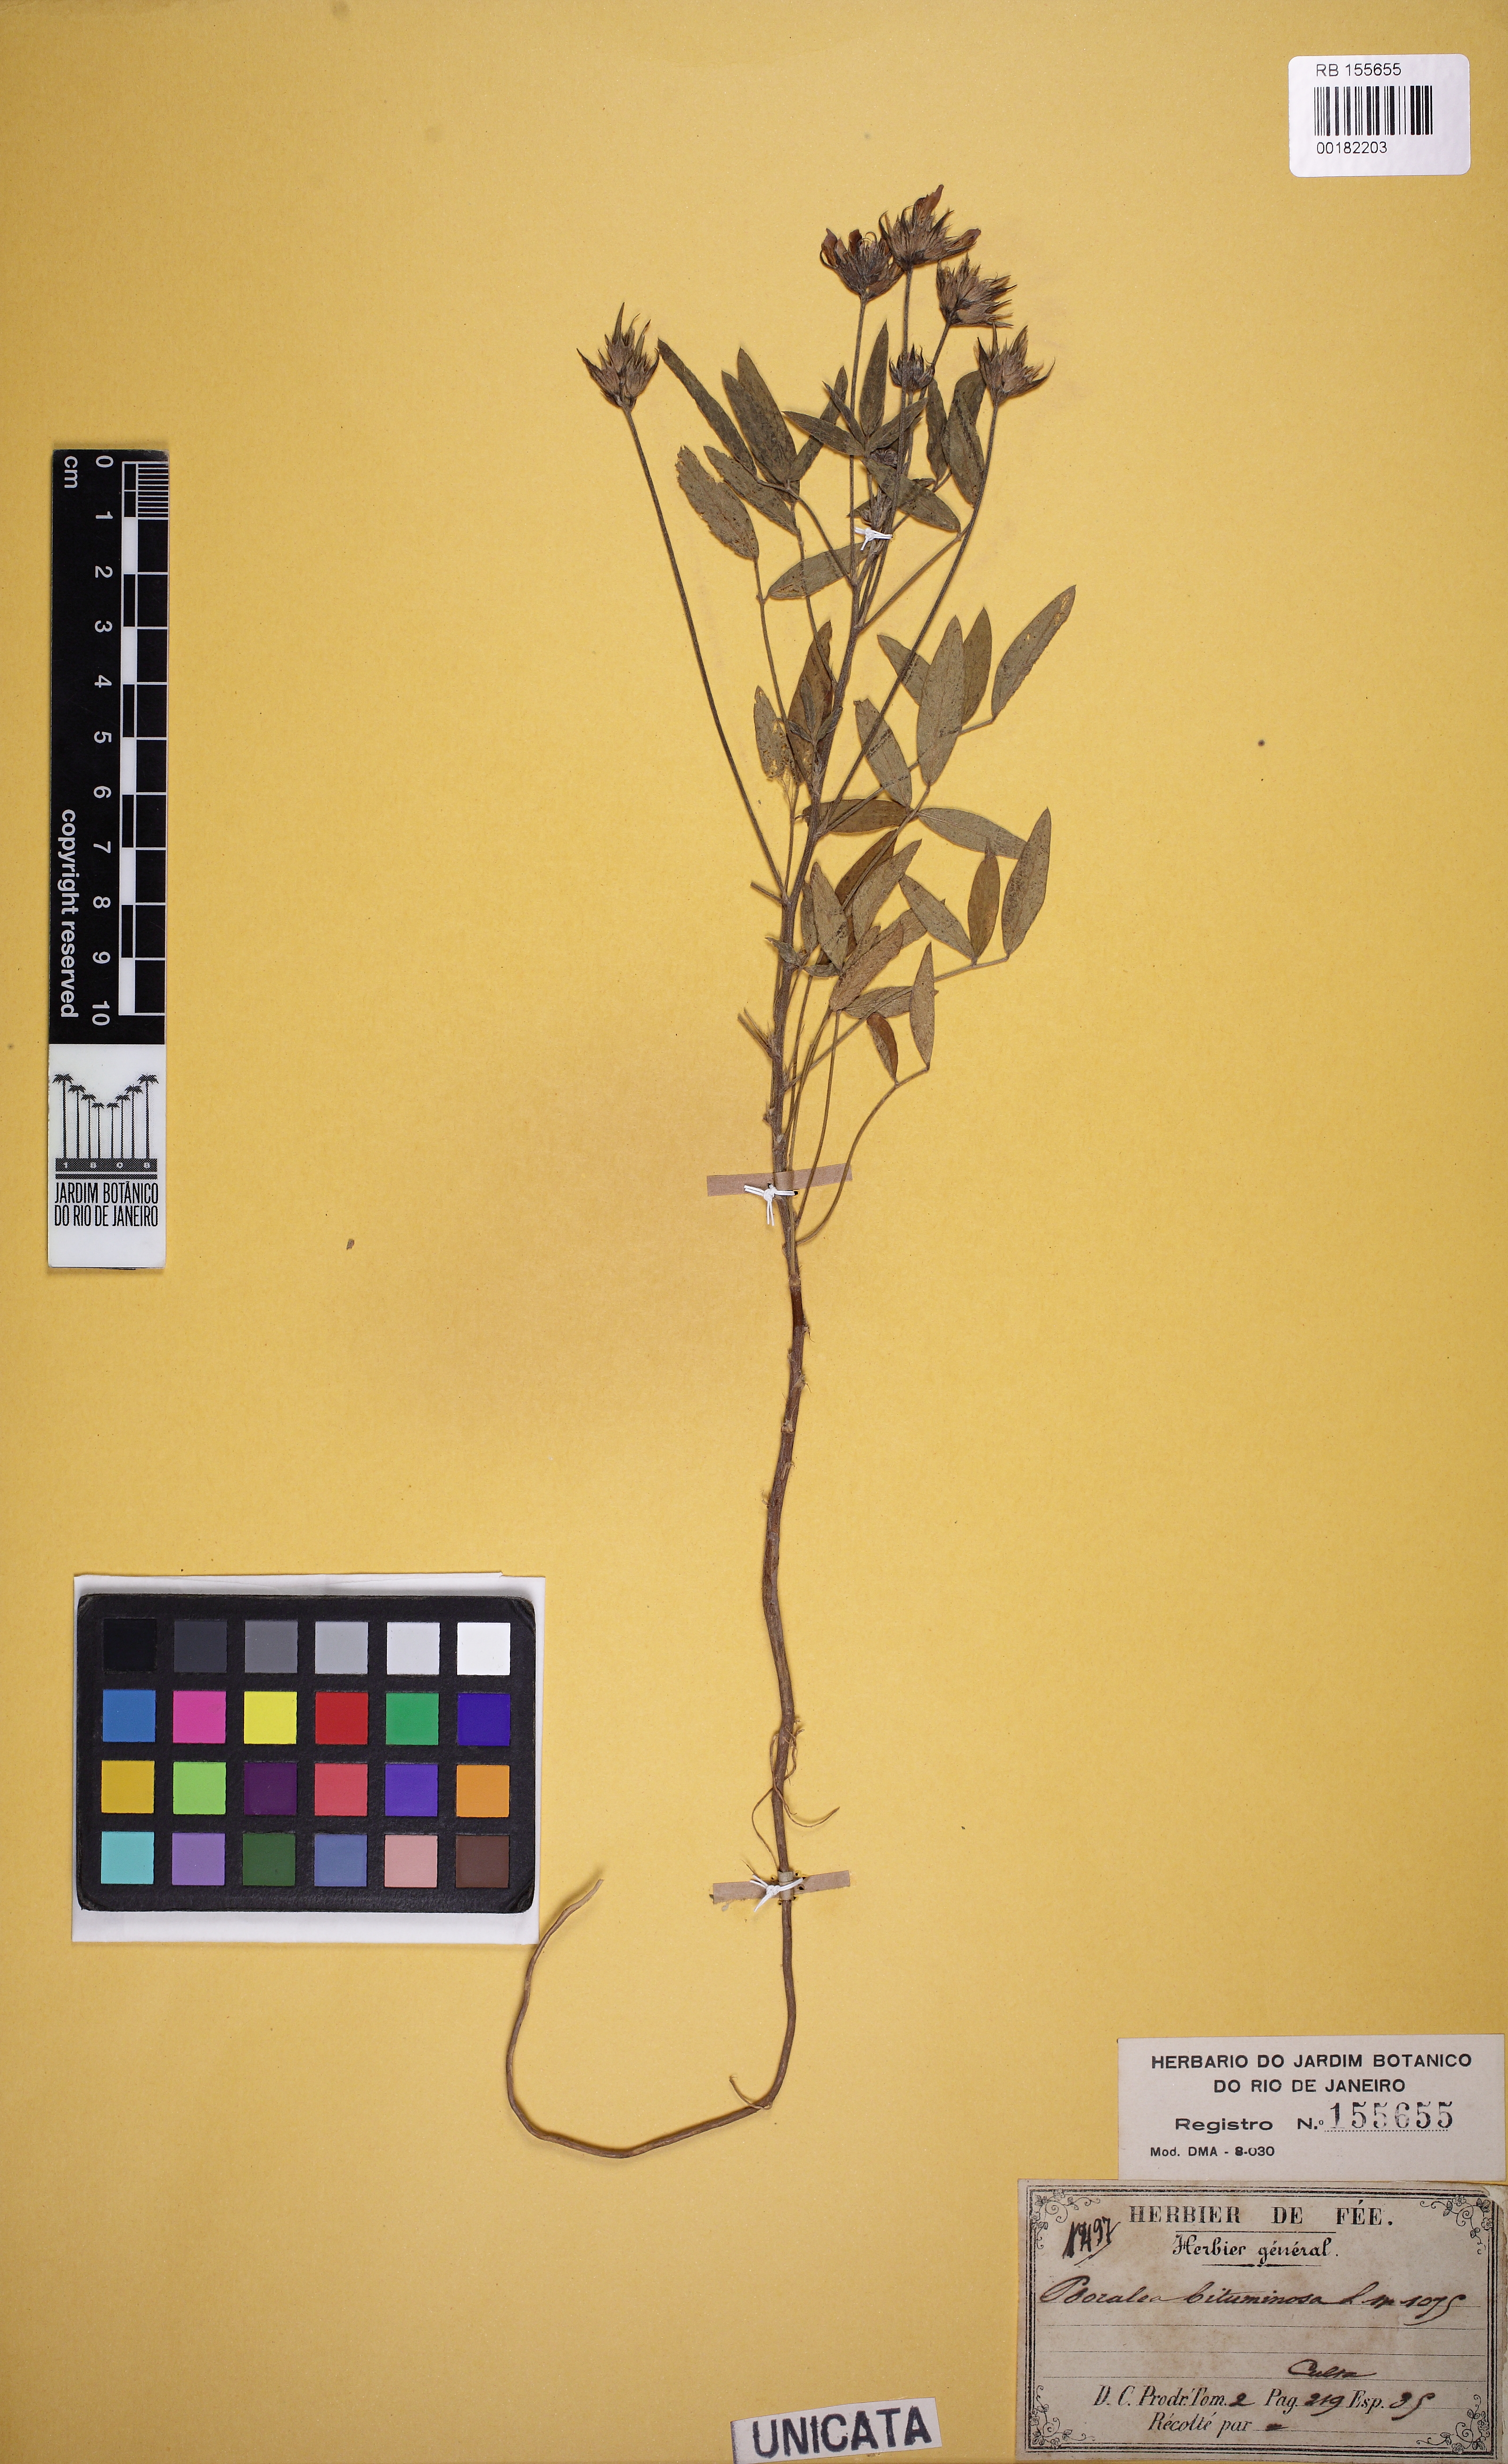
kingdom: Plantae
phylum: Tracheophyta
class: Magnoliopsida
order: Fabales
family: Fabaceae
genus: Psoralea
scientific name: Psoralea
